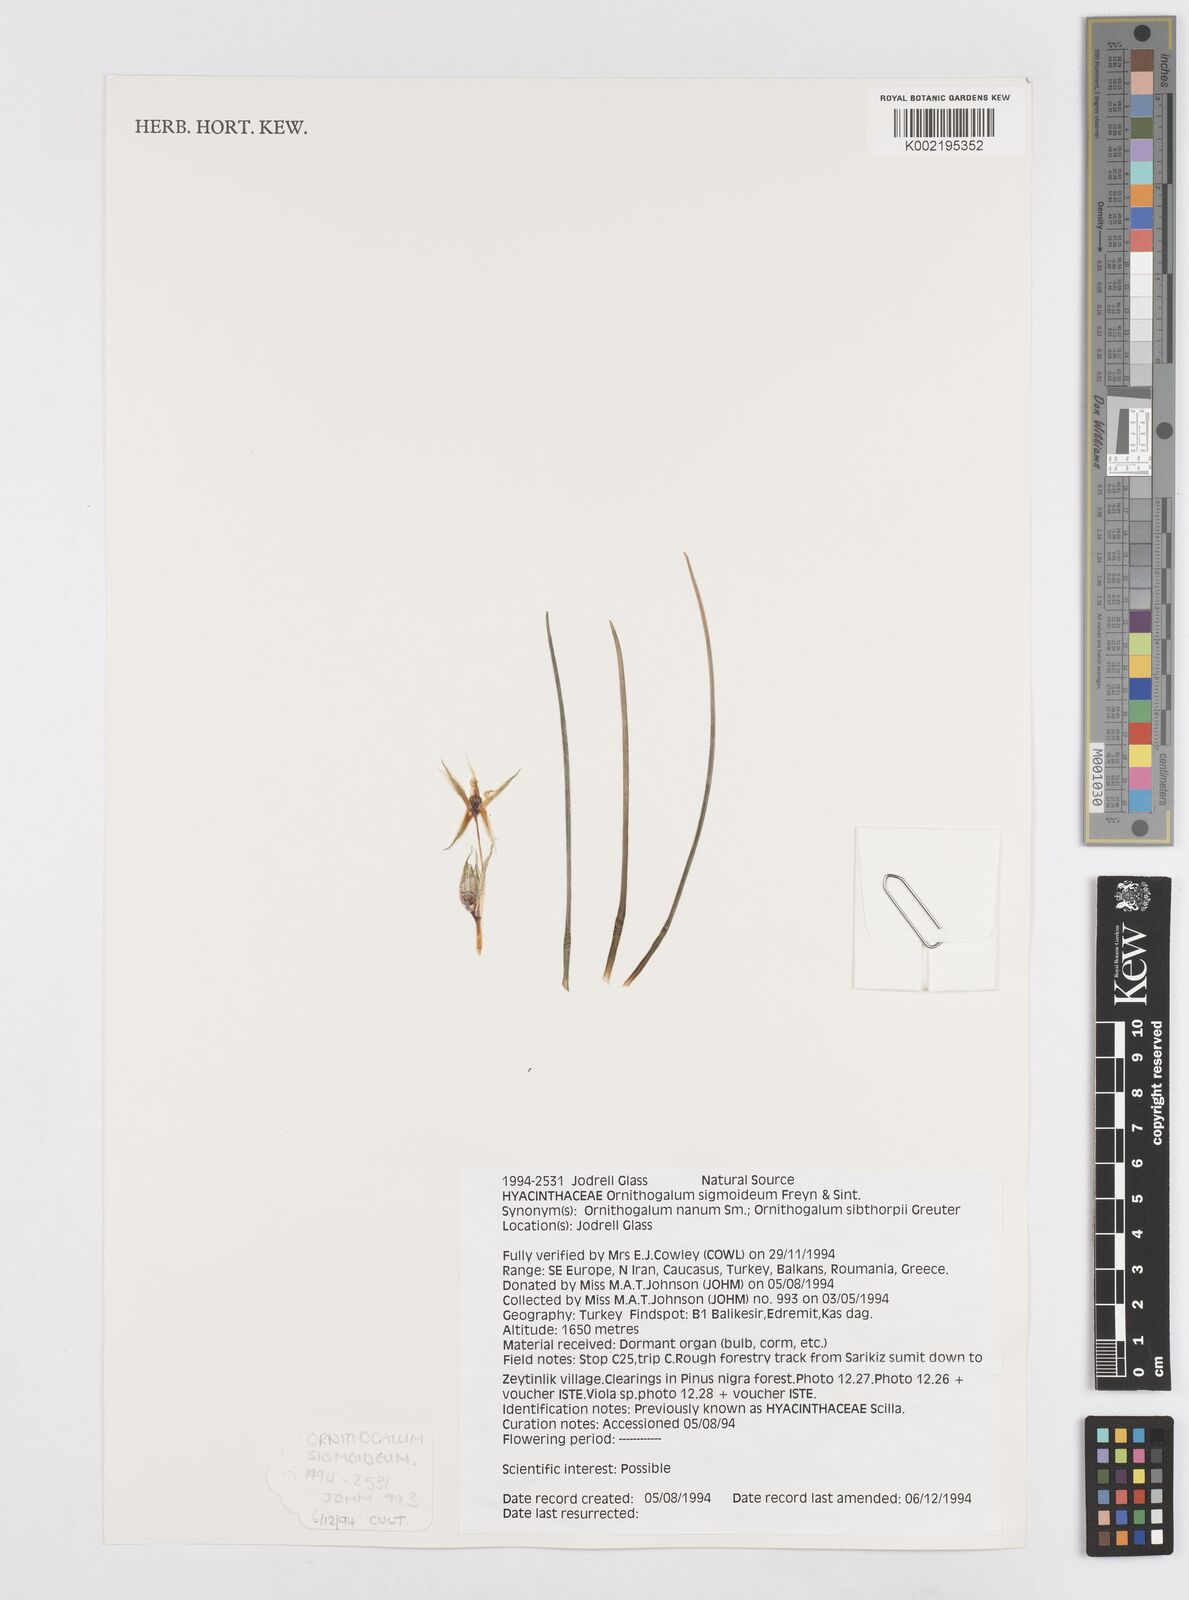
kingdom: Plantae
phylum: Tracheophyta
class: Liliopsida
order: Asparagales
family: Asparagaceae
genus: Ornithogalum
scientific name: Ornithogalum sigmoideum
